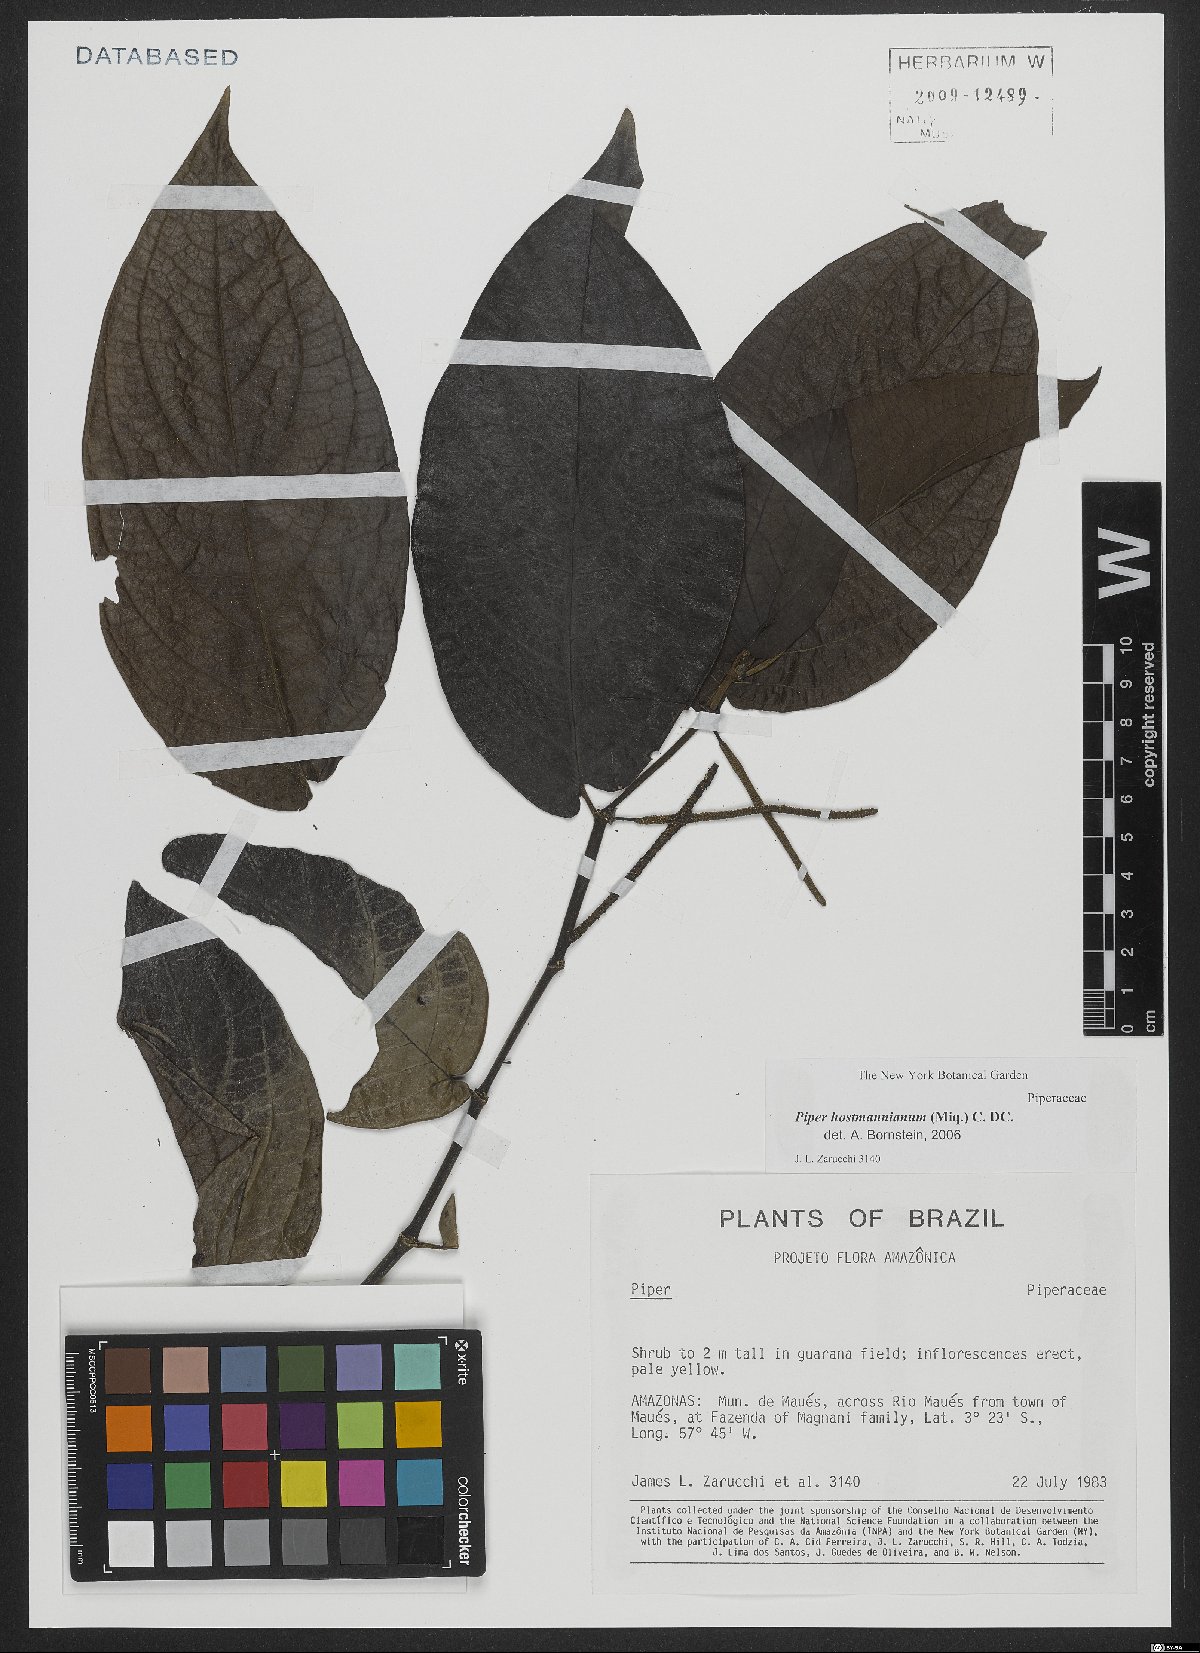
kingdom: Plantae
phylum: Tracheophyta
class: Magnoliopsida
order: Piperales
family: Piperaceae
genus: Piper
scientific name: Piper hostmannianum
